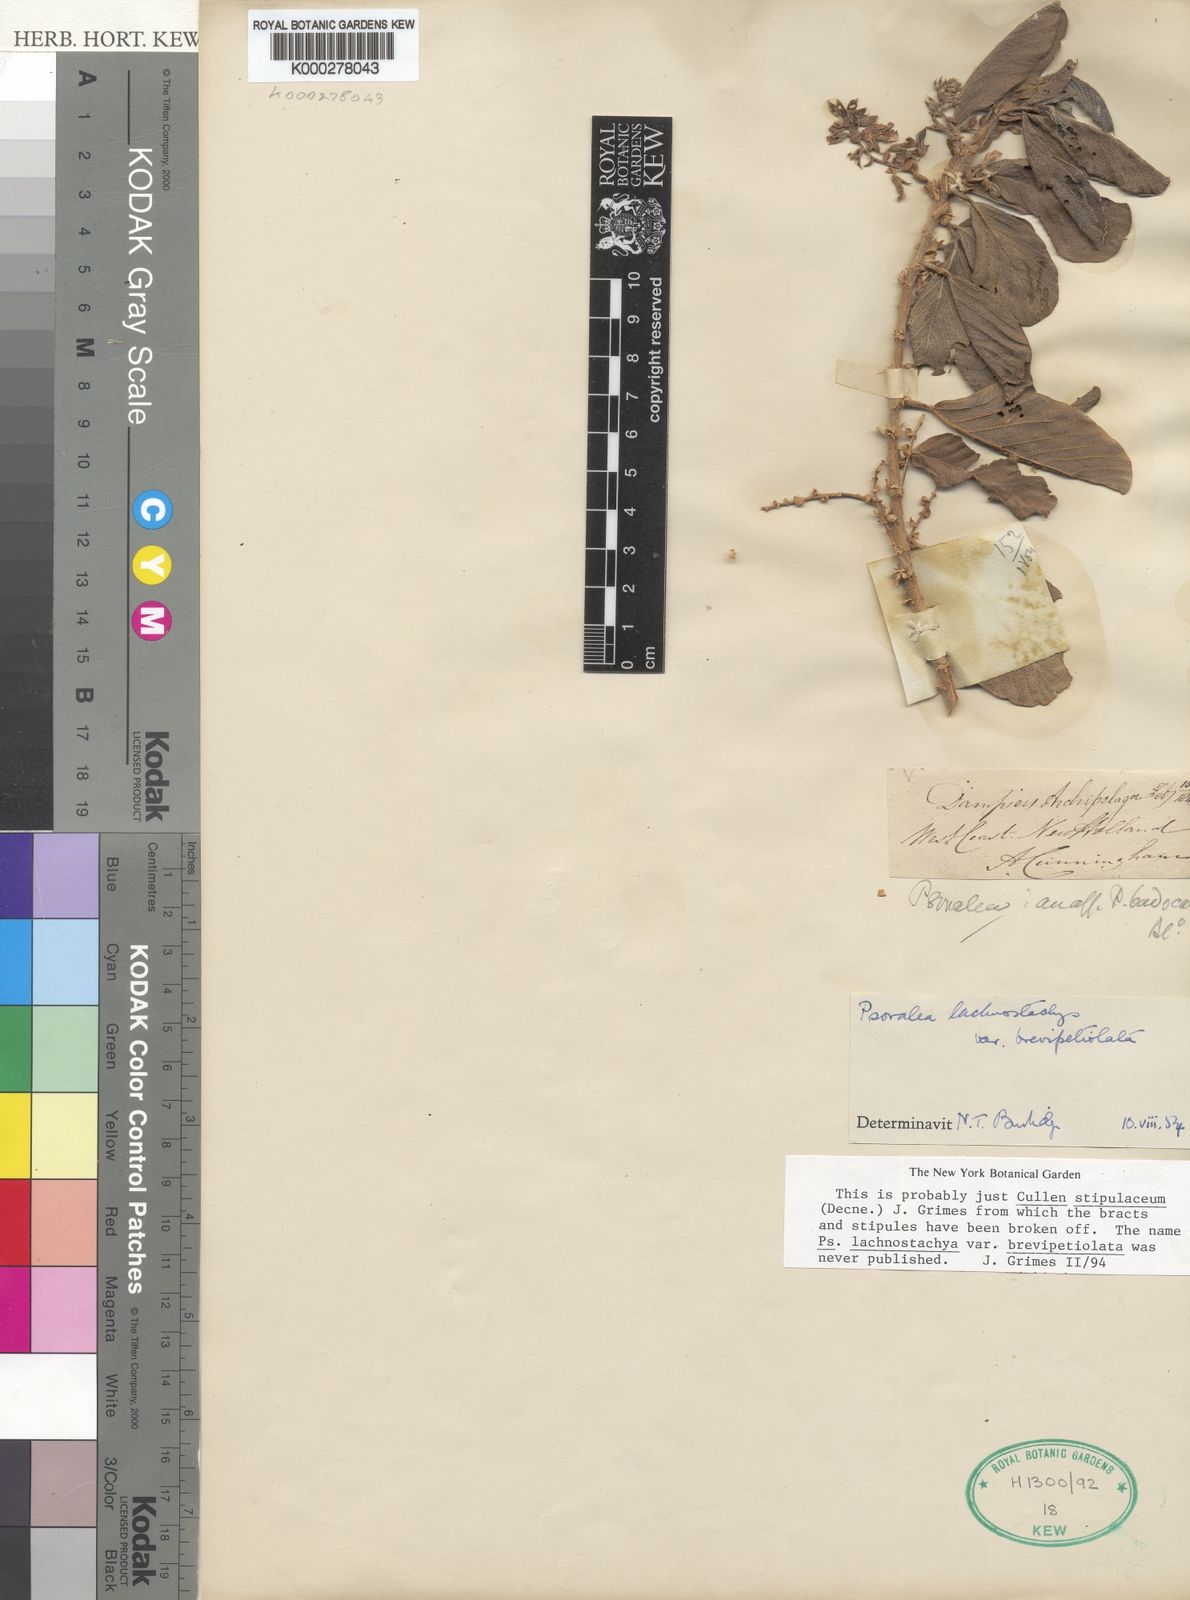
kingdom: Plantae
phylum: Tracheophyta
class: Magnoliopsida
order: Fabales
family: Fabaceae
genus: Cullen
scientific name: Cullen stipulaceum
